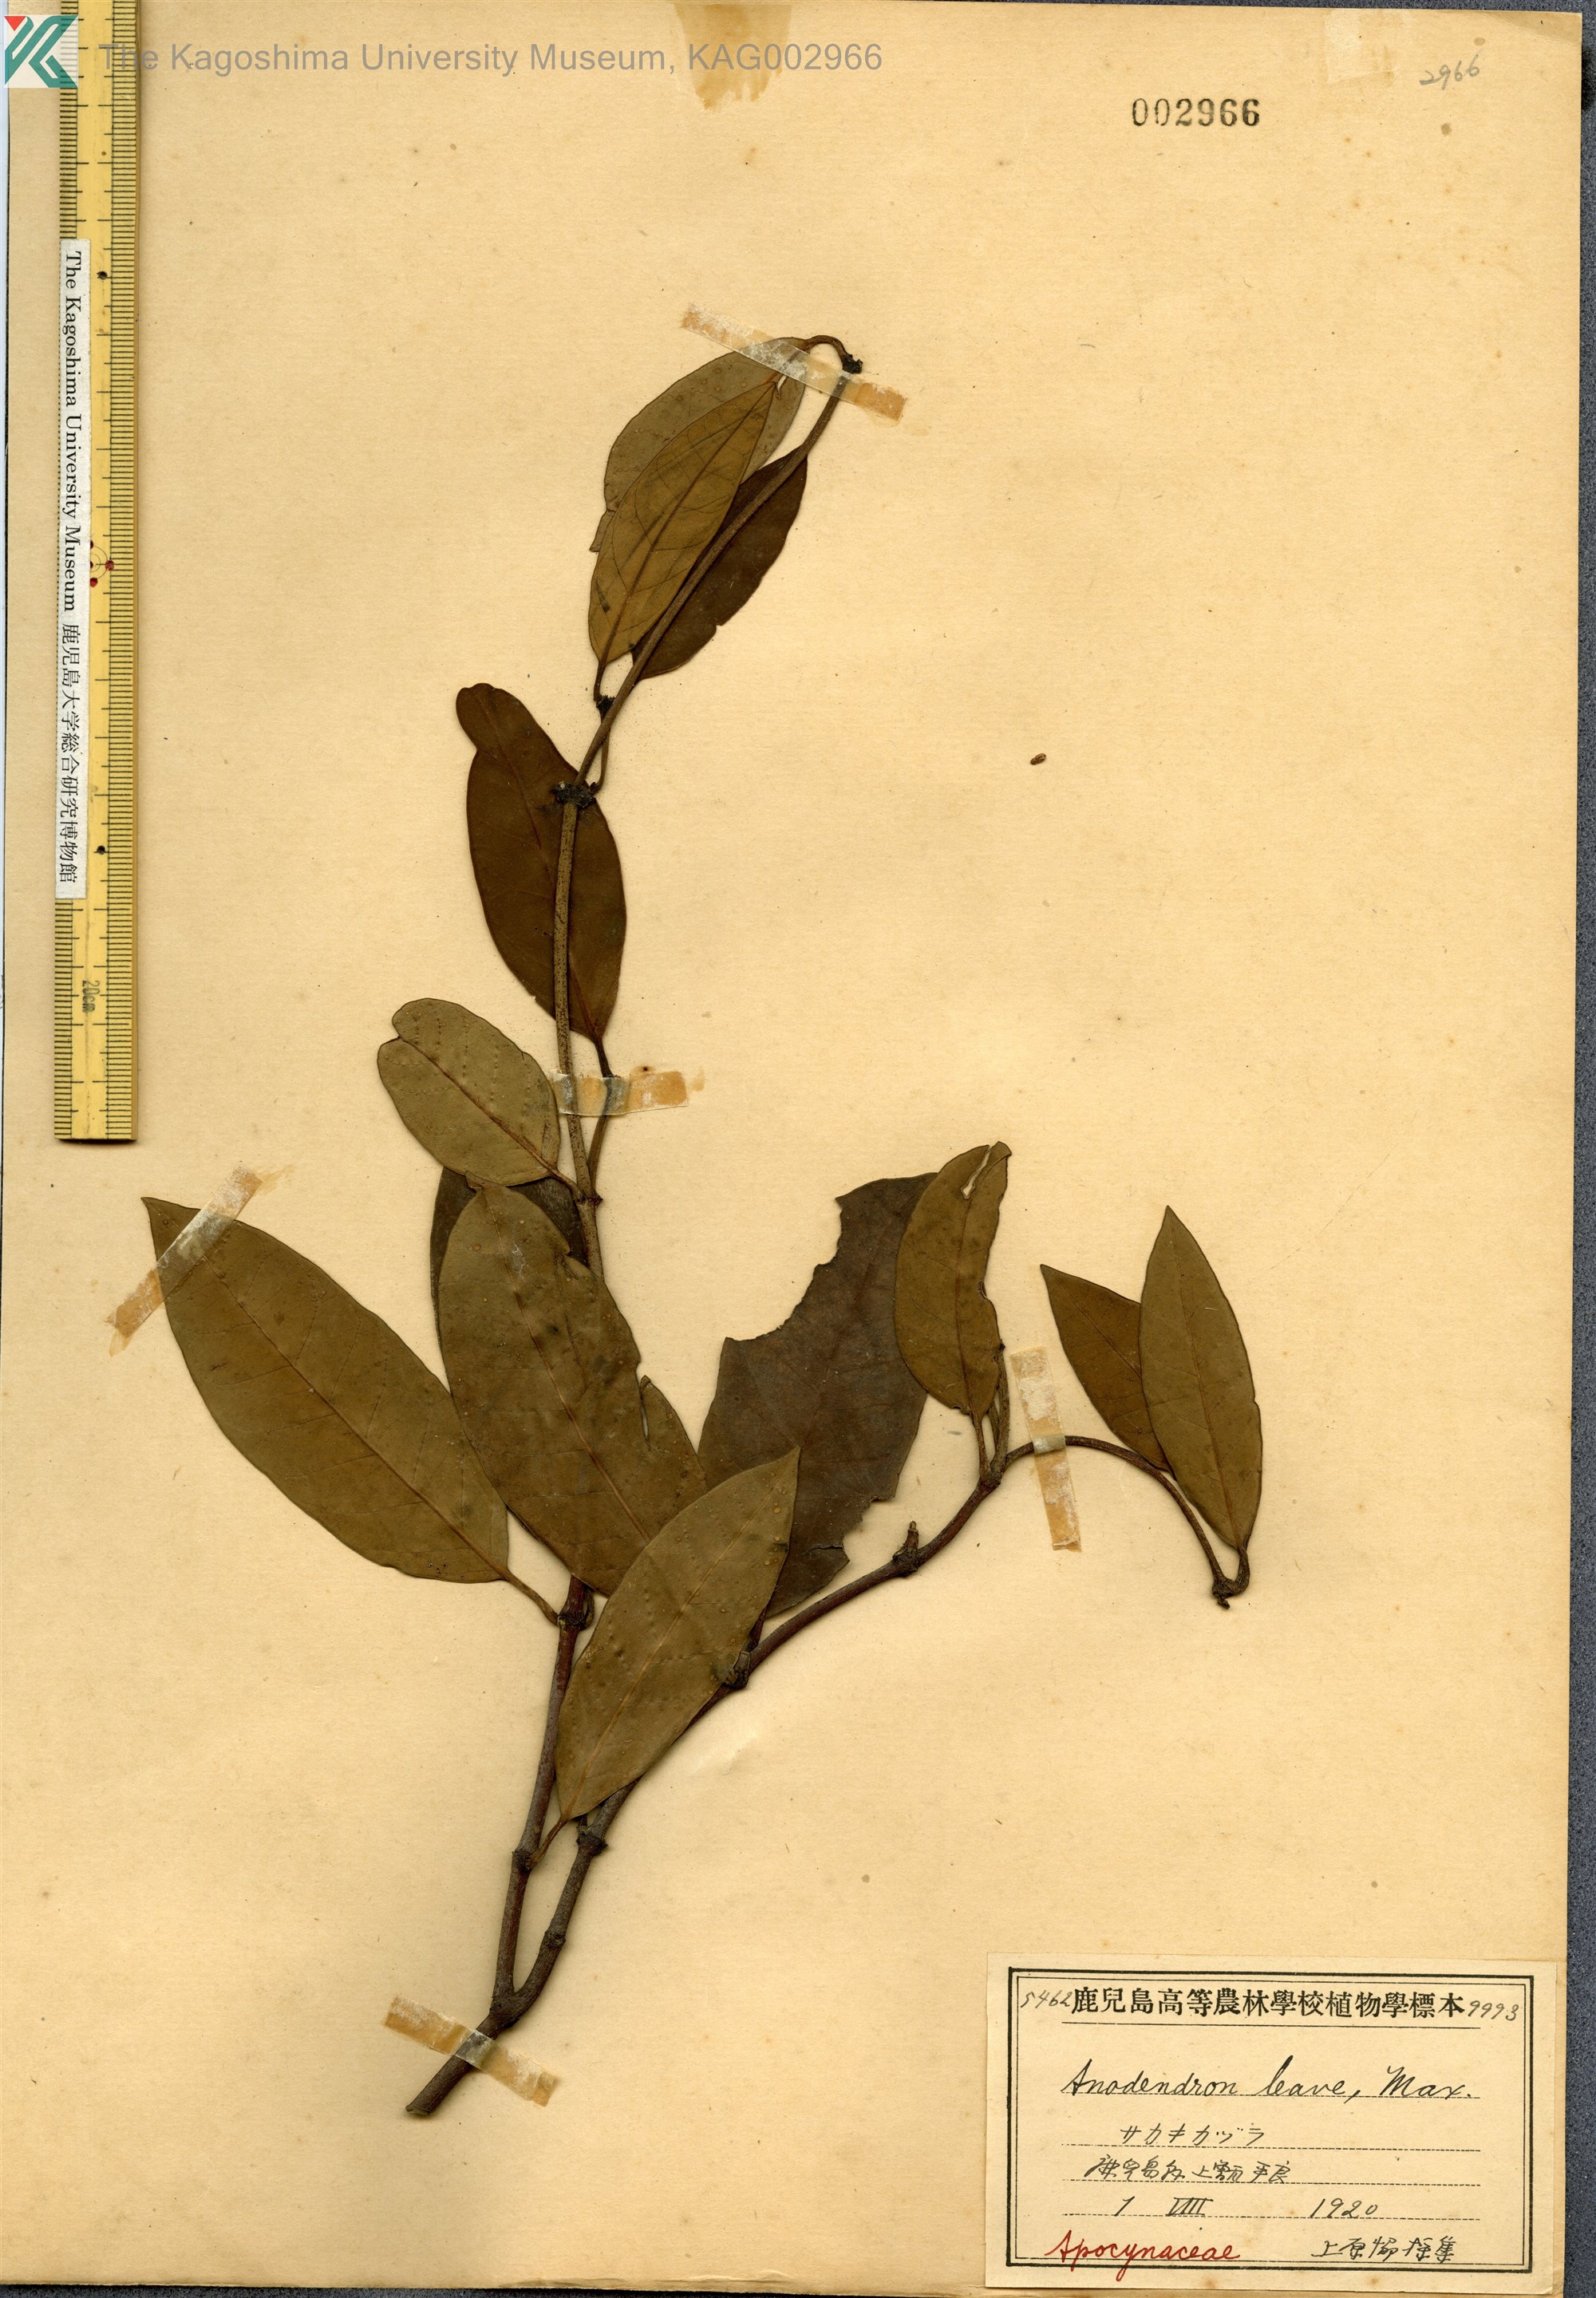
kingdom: Plantae
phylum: Tracheophyta
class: Magnoliopsida
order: Gentianales
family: Apocynaceae
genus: Anodendron
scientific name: Anodendron affine
